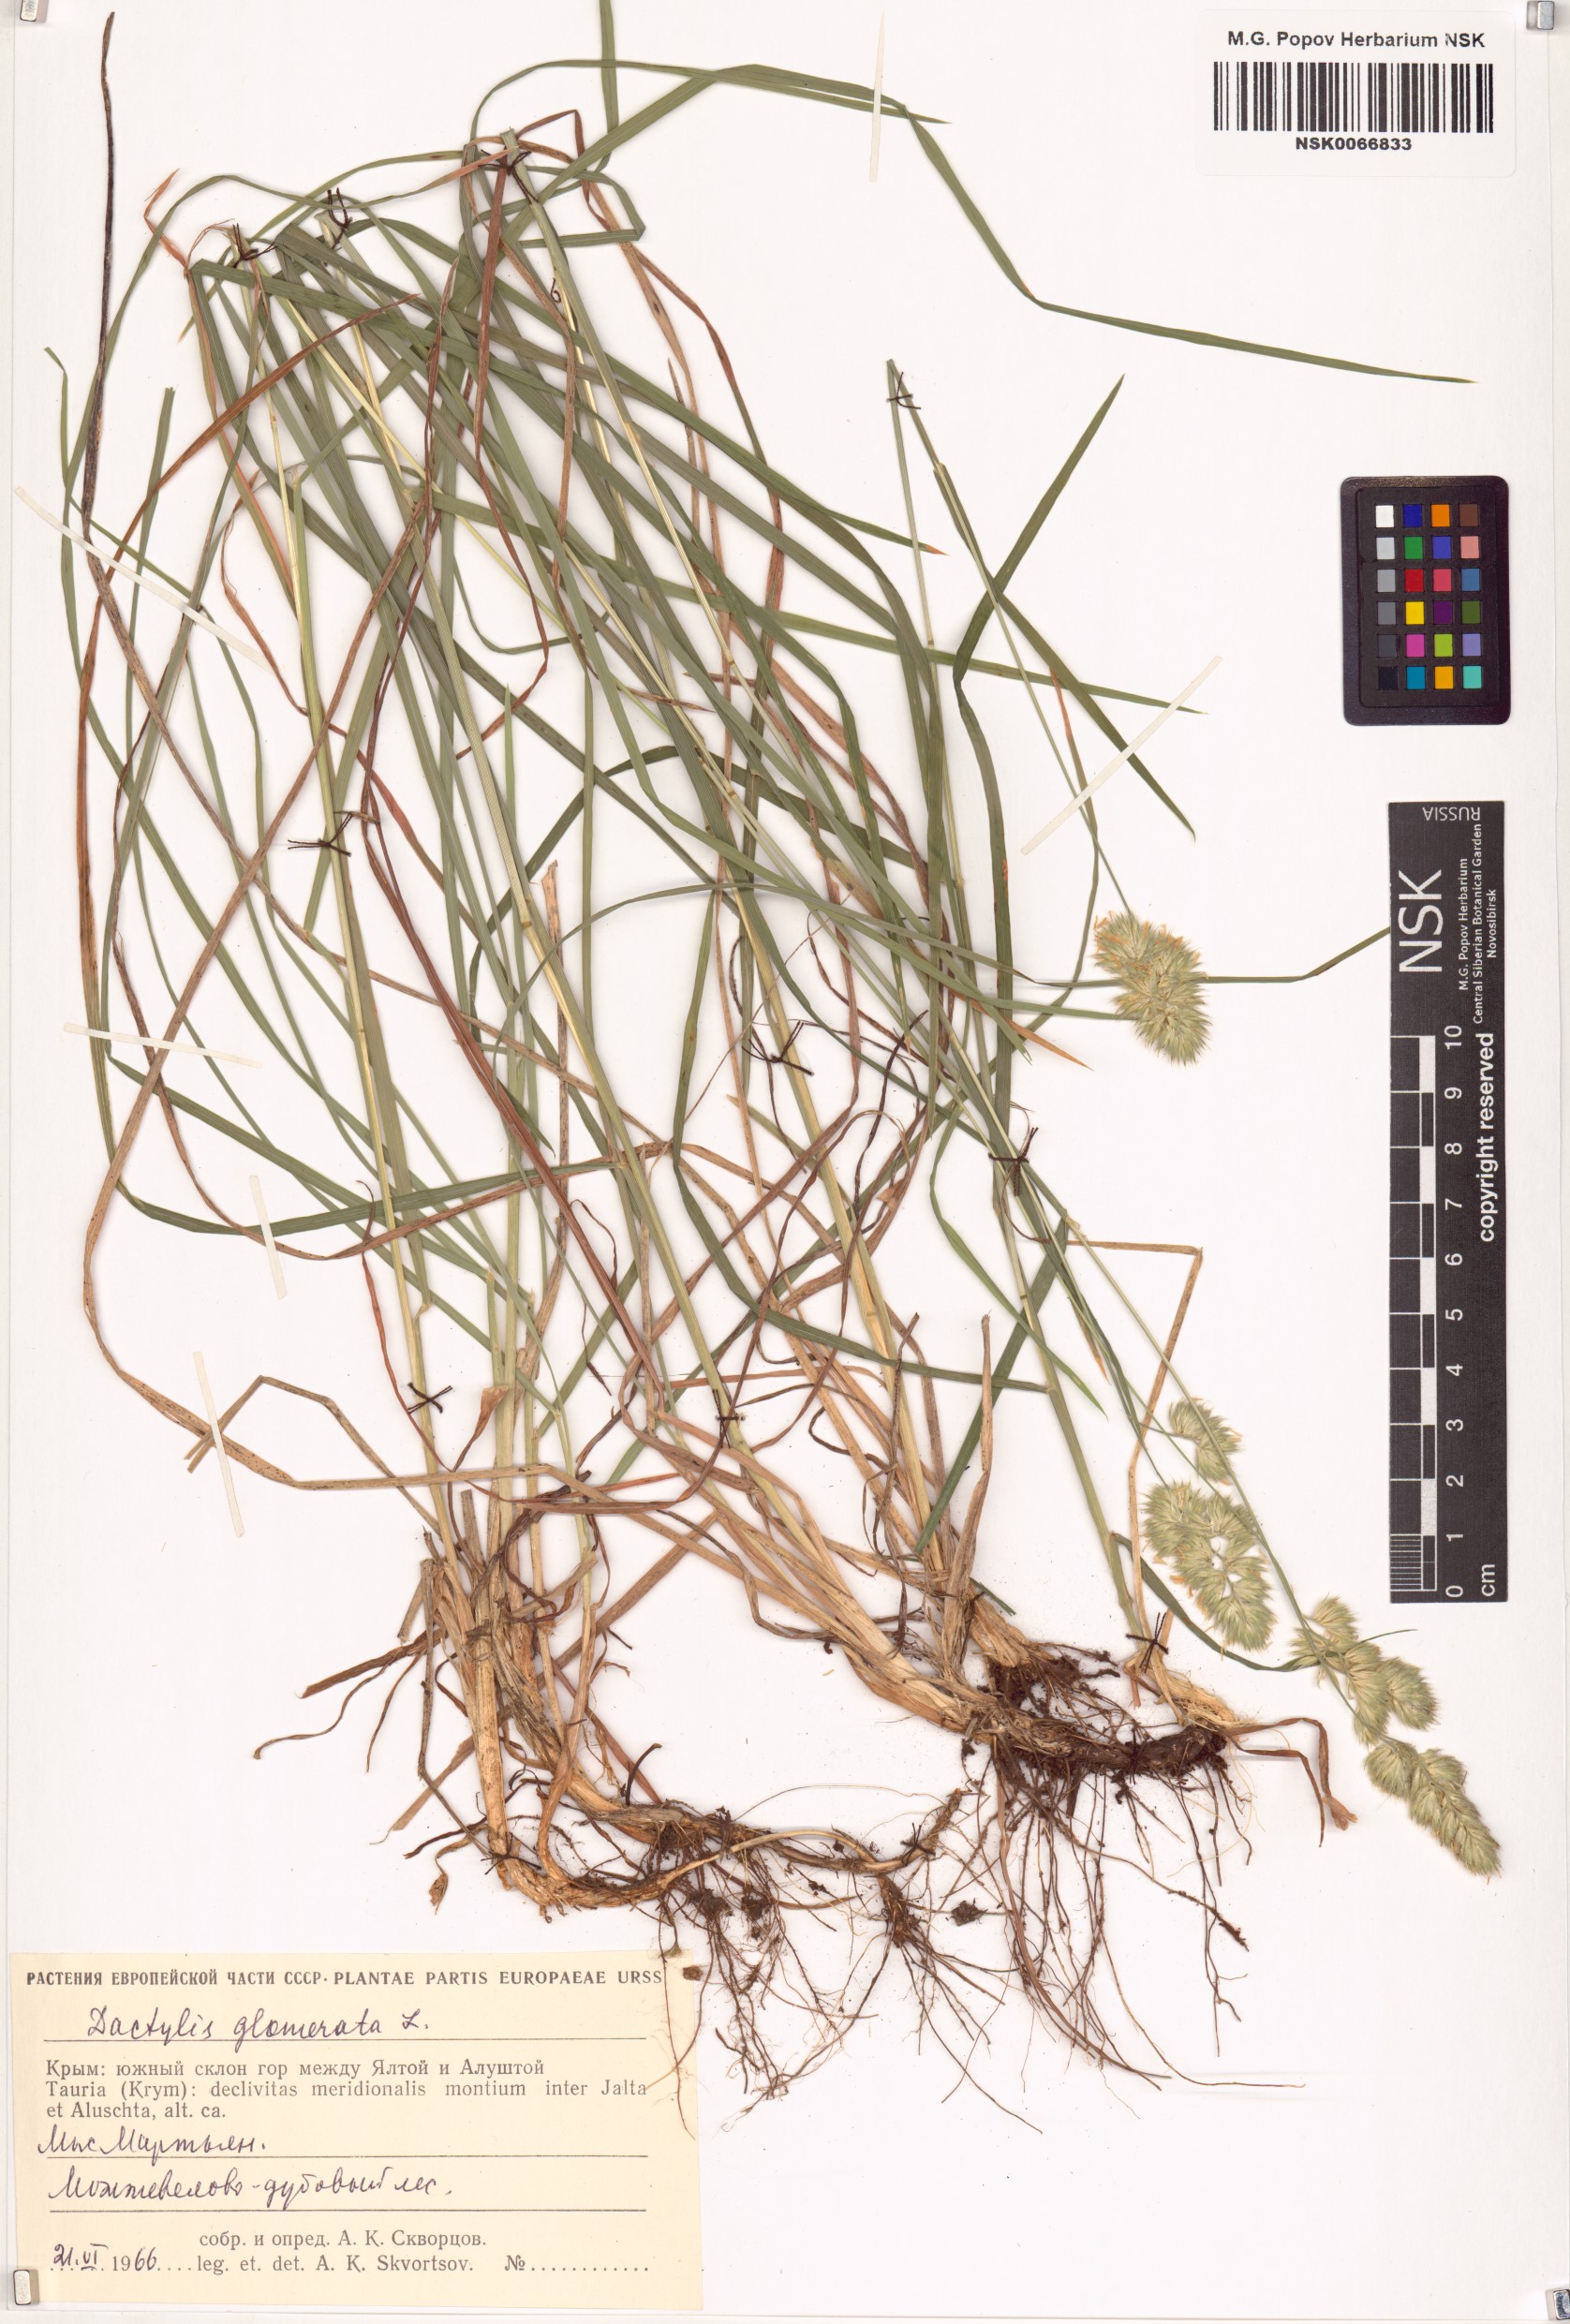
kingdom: Plantae
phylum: Tracheophyta
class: Liliopsida
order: Poales
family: Poaceae
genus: Dactylis
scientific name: Dactylis glomerata
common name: Orchardgrass
